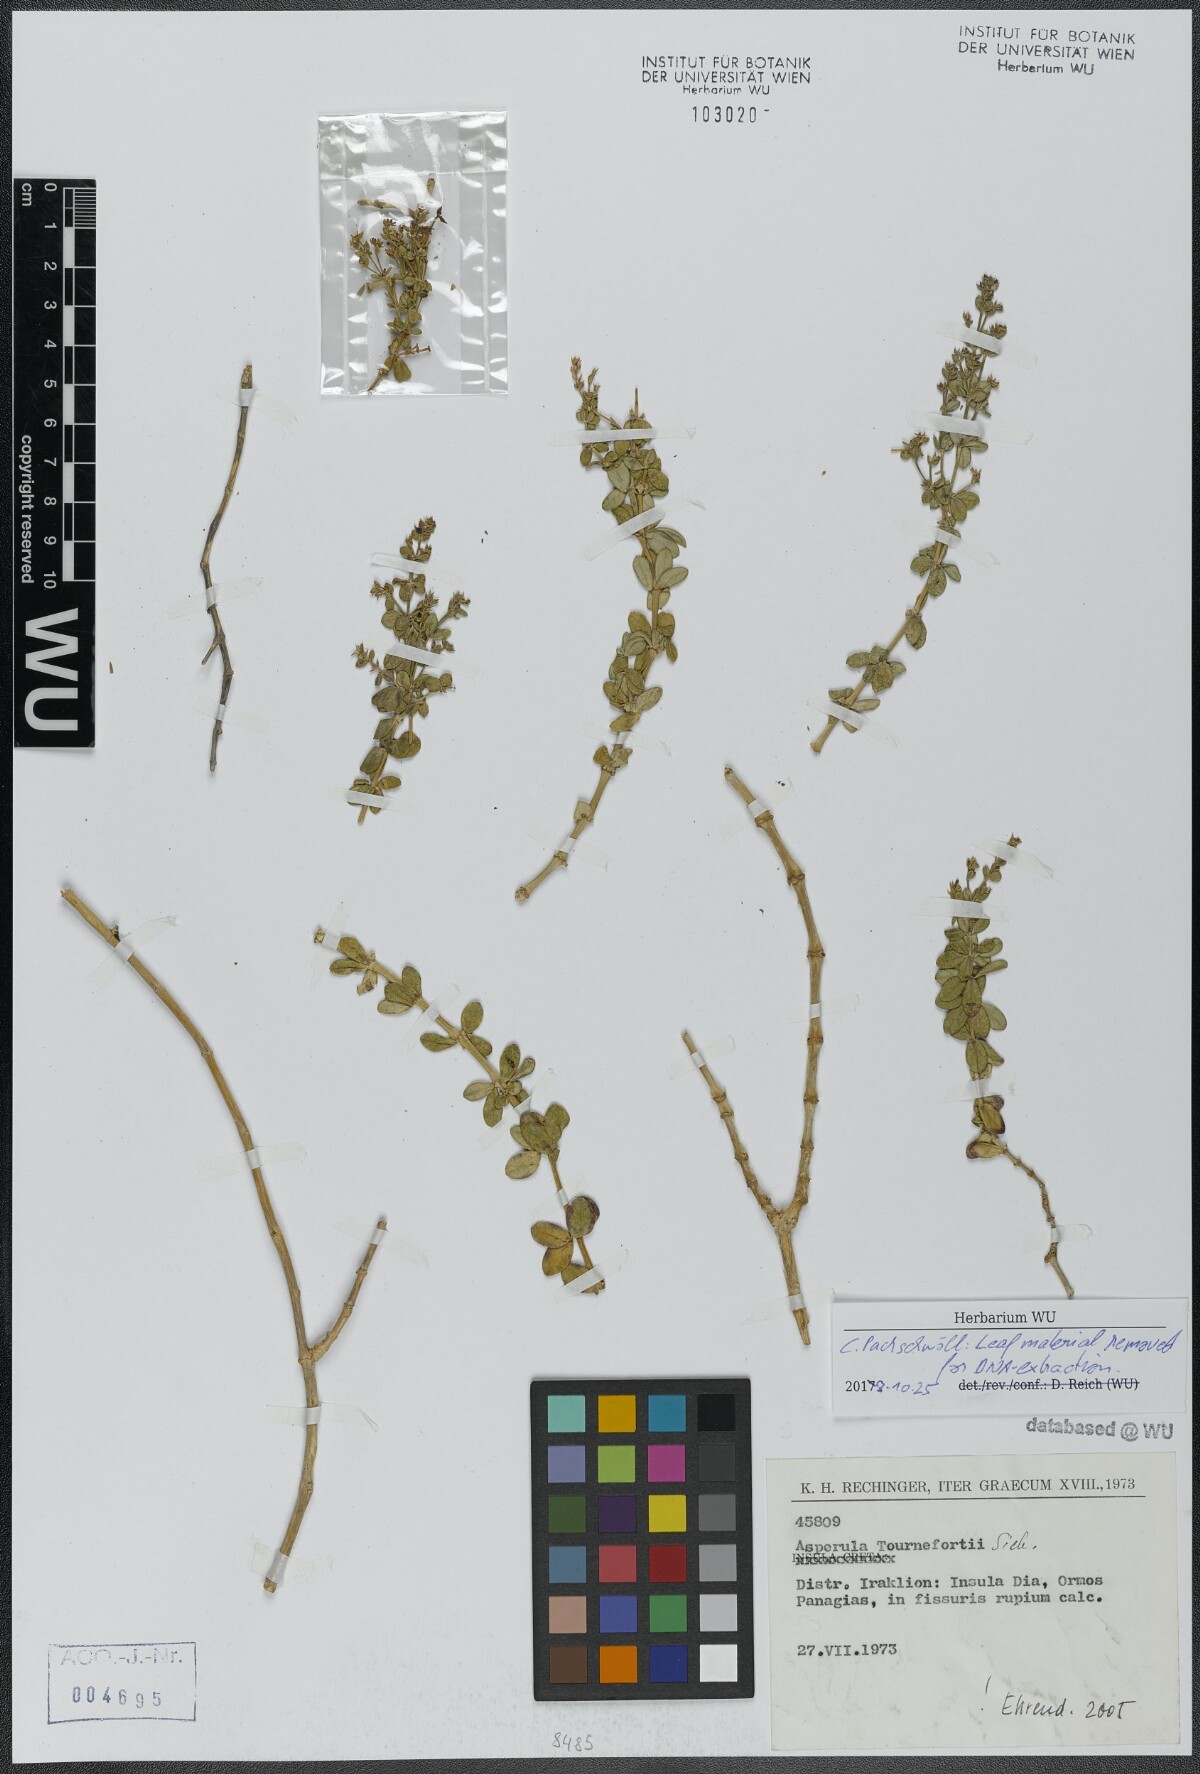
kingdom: Plantae
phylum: Tracheophyta
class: Magnoliopsida
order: Gentianales
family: Rubiaceae
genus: Thliphthisa
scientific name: Thliphthisa tournefortii
